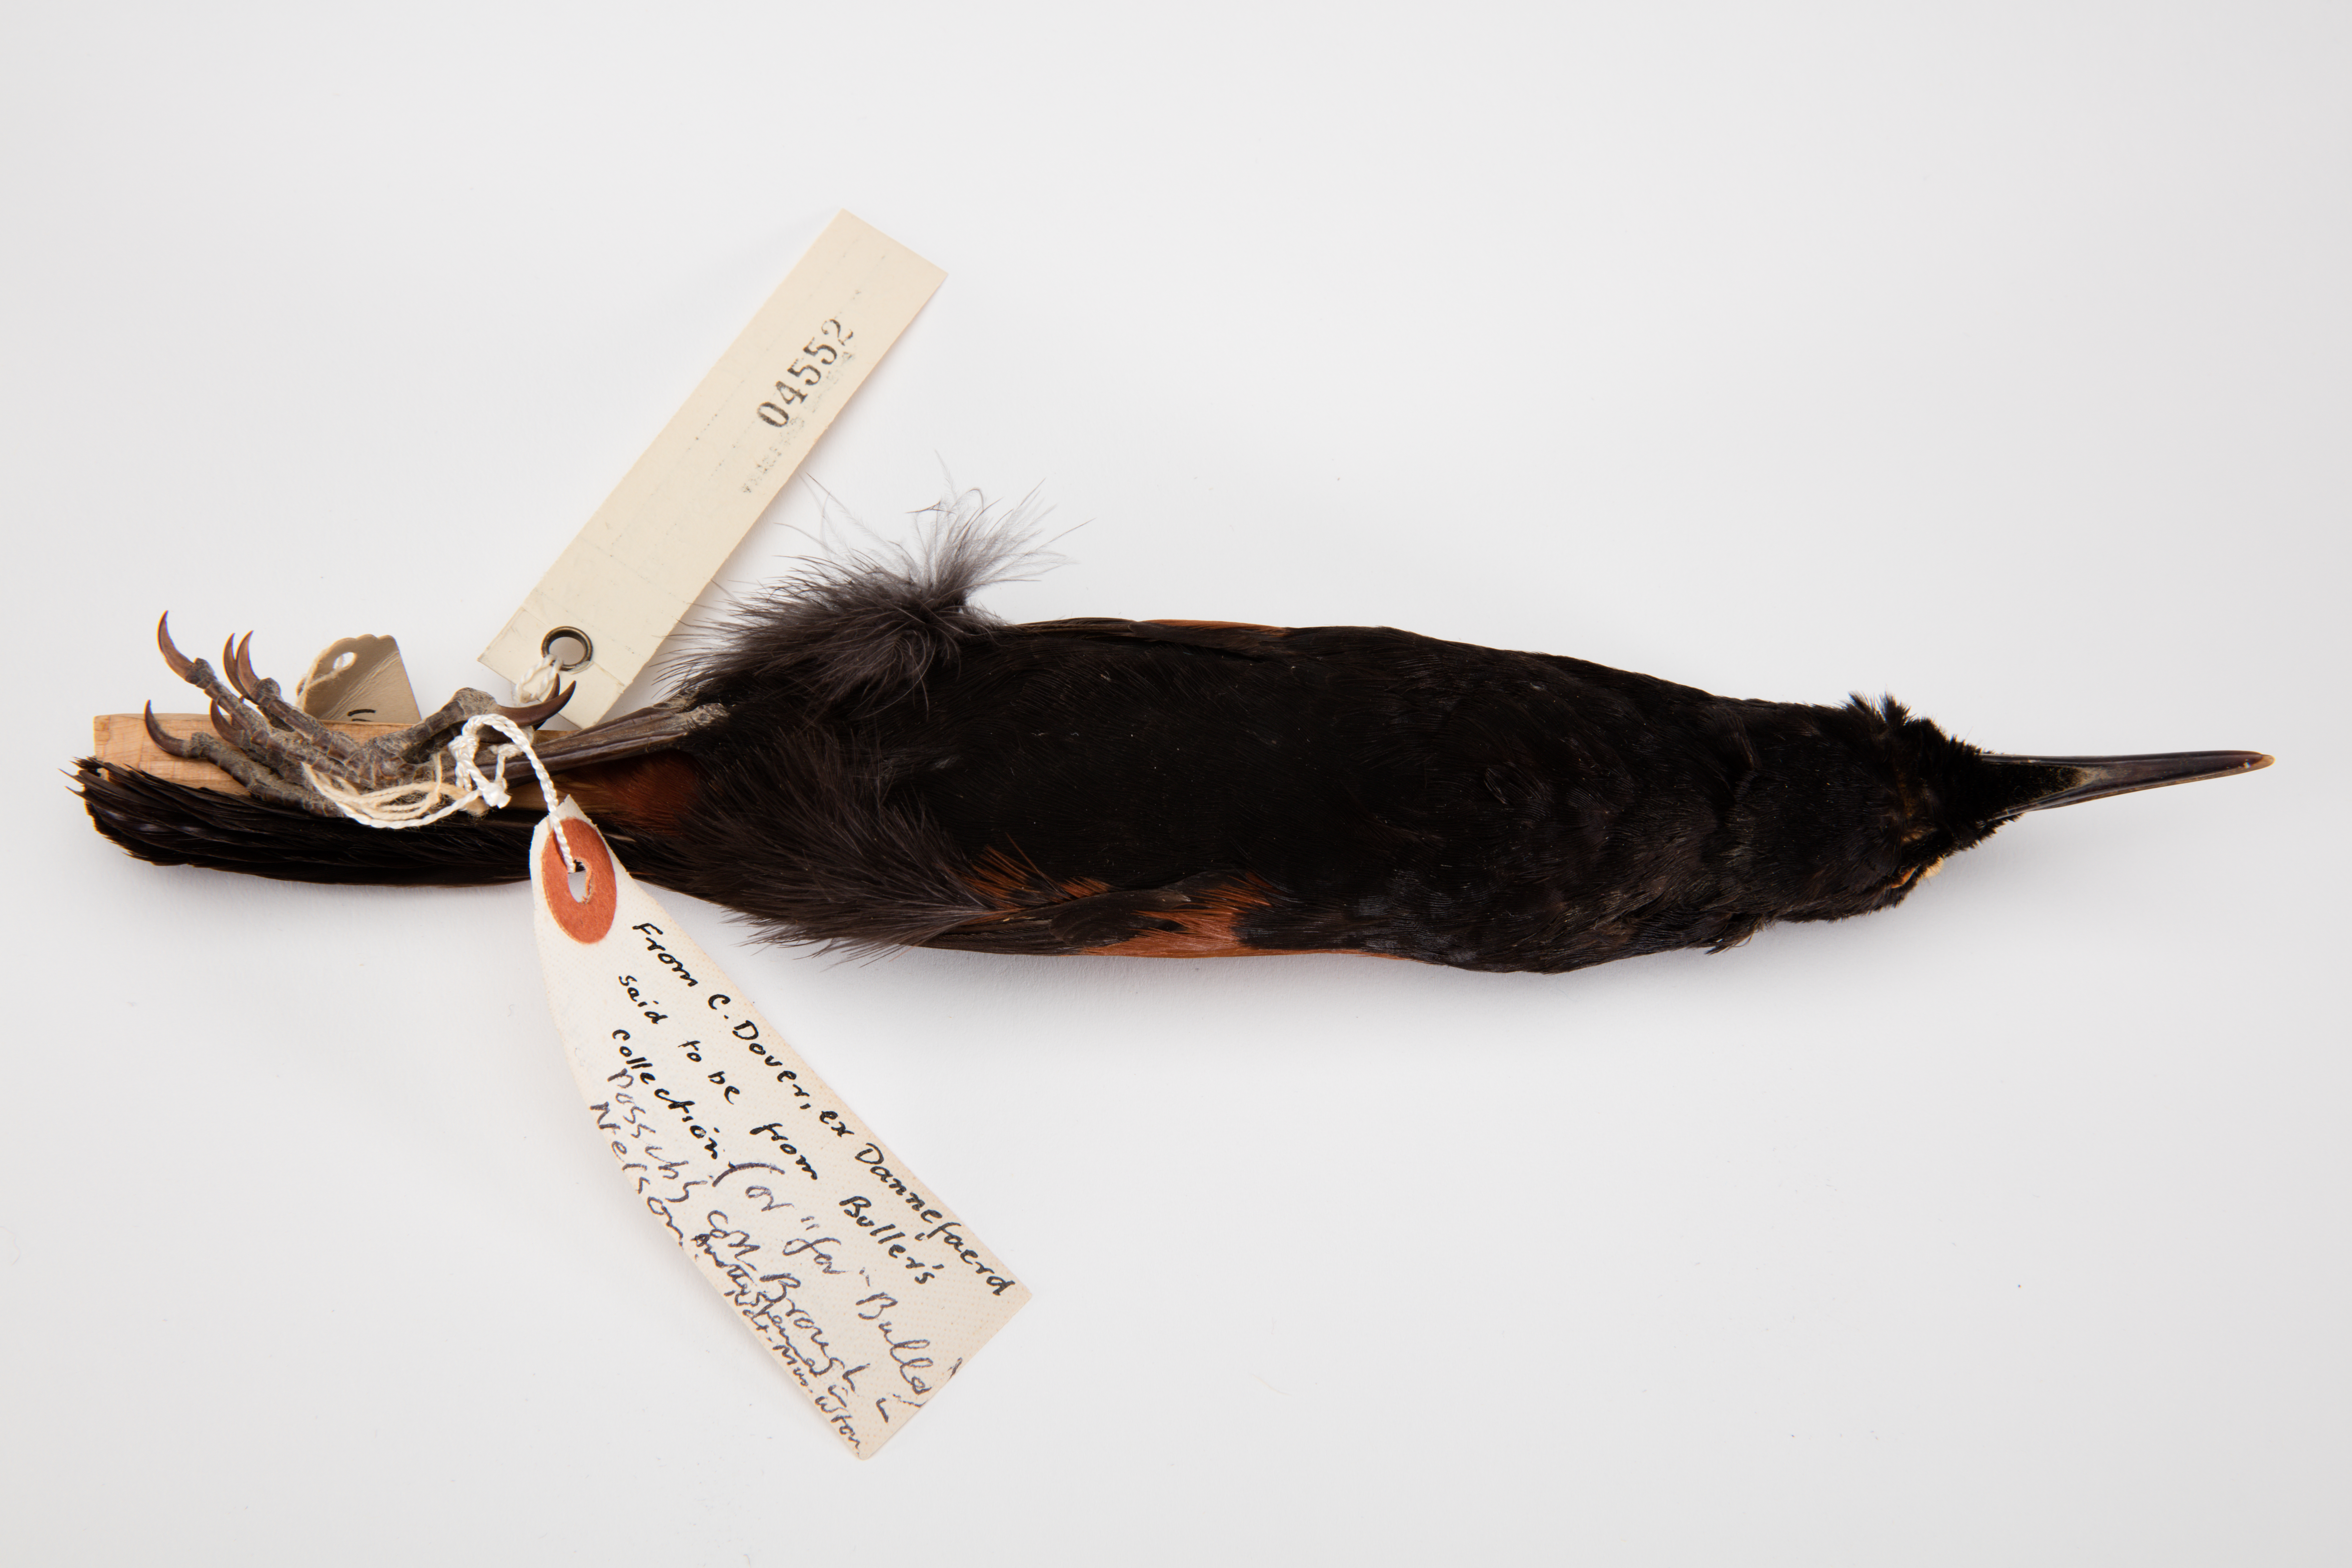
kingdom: Animalia
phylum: Chordata
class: Aves
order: Passeriformes
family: Callaeatidae
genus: Philesturnus
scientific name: Philesturnus carunculatus
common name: South island saddleback
